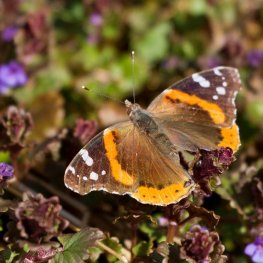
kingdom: Animalia
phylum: Arthropoda
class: Insecta
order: Lepidoptera
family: Nymphalidae
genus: Vanessa
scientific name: Vanessa atalanta
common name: Red Admiral
